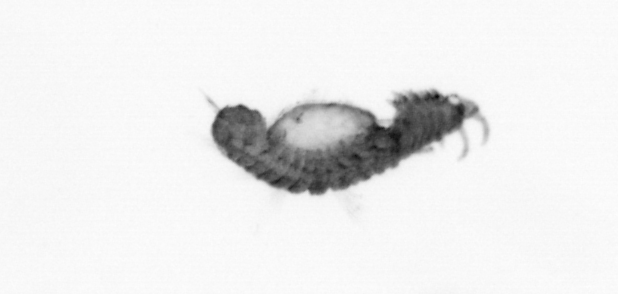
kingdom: Animalia
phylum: Annelida
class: Polychaeta
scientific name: Polychaeta
